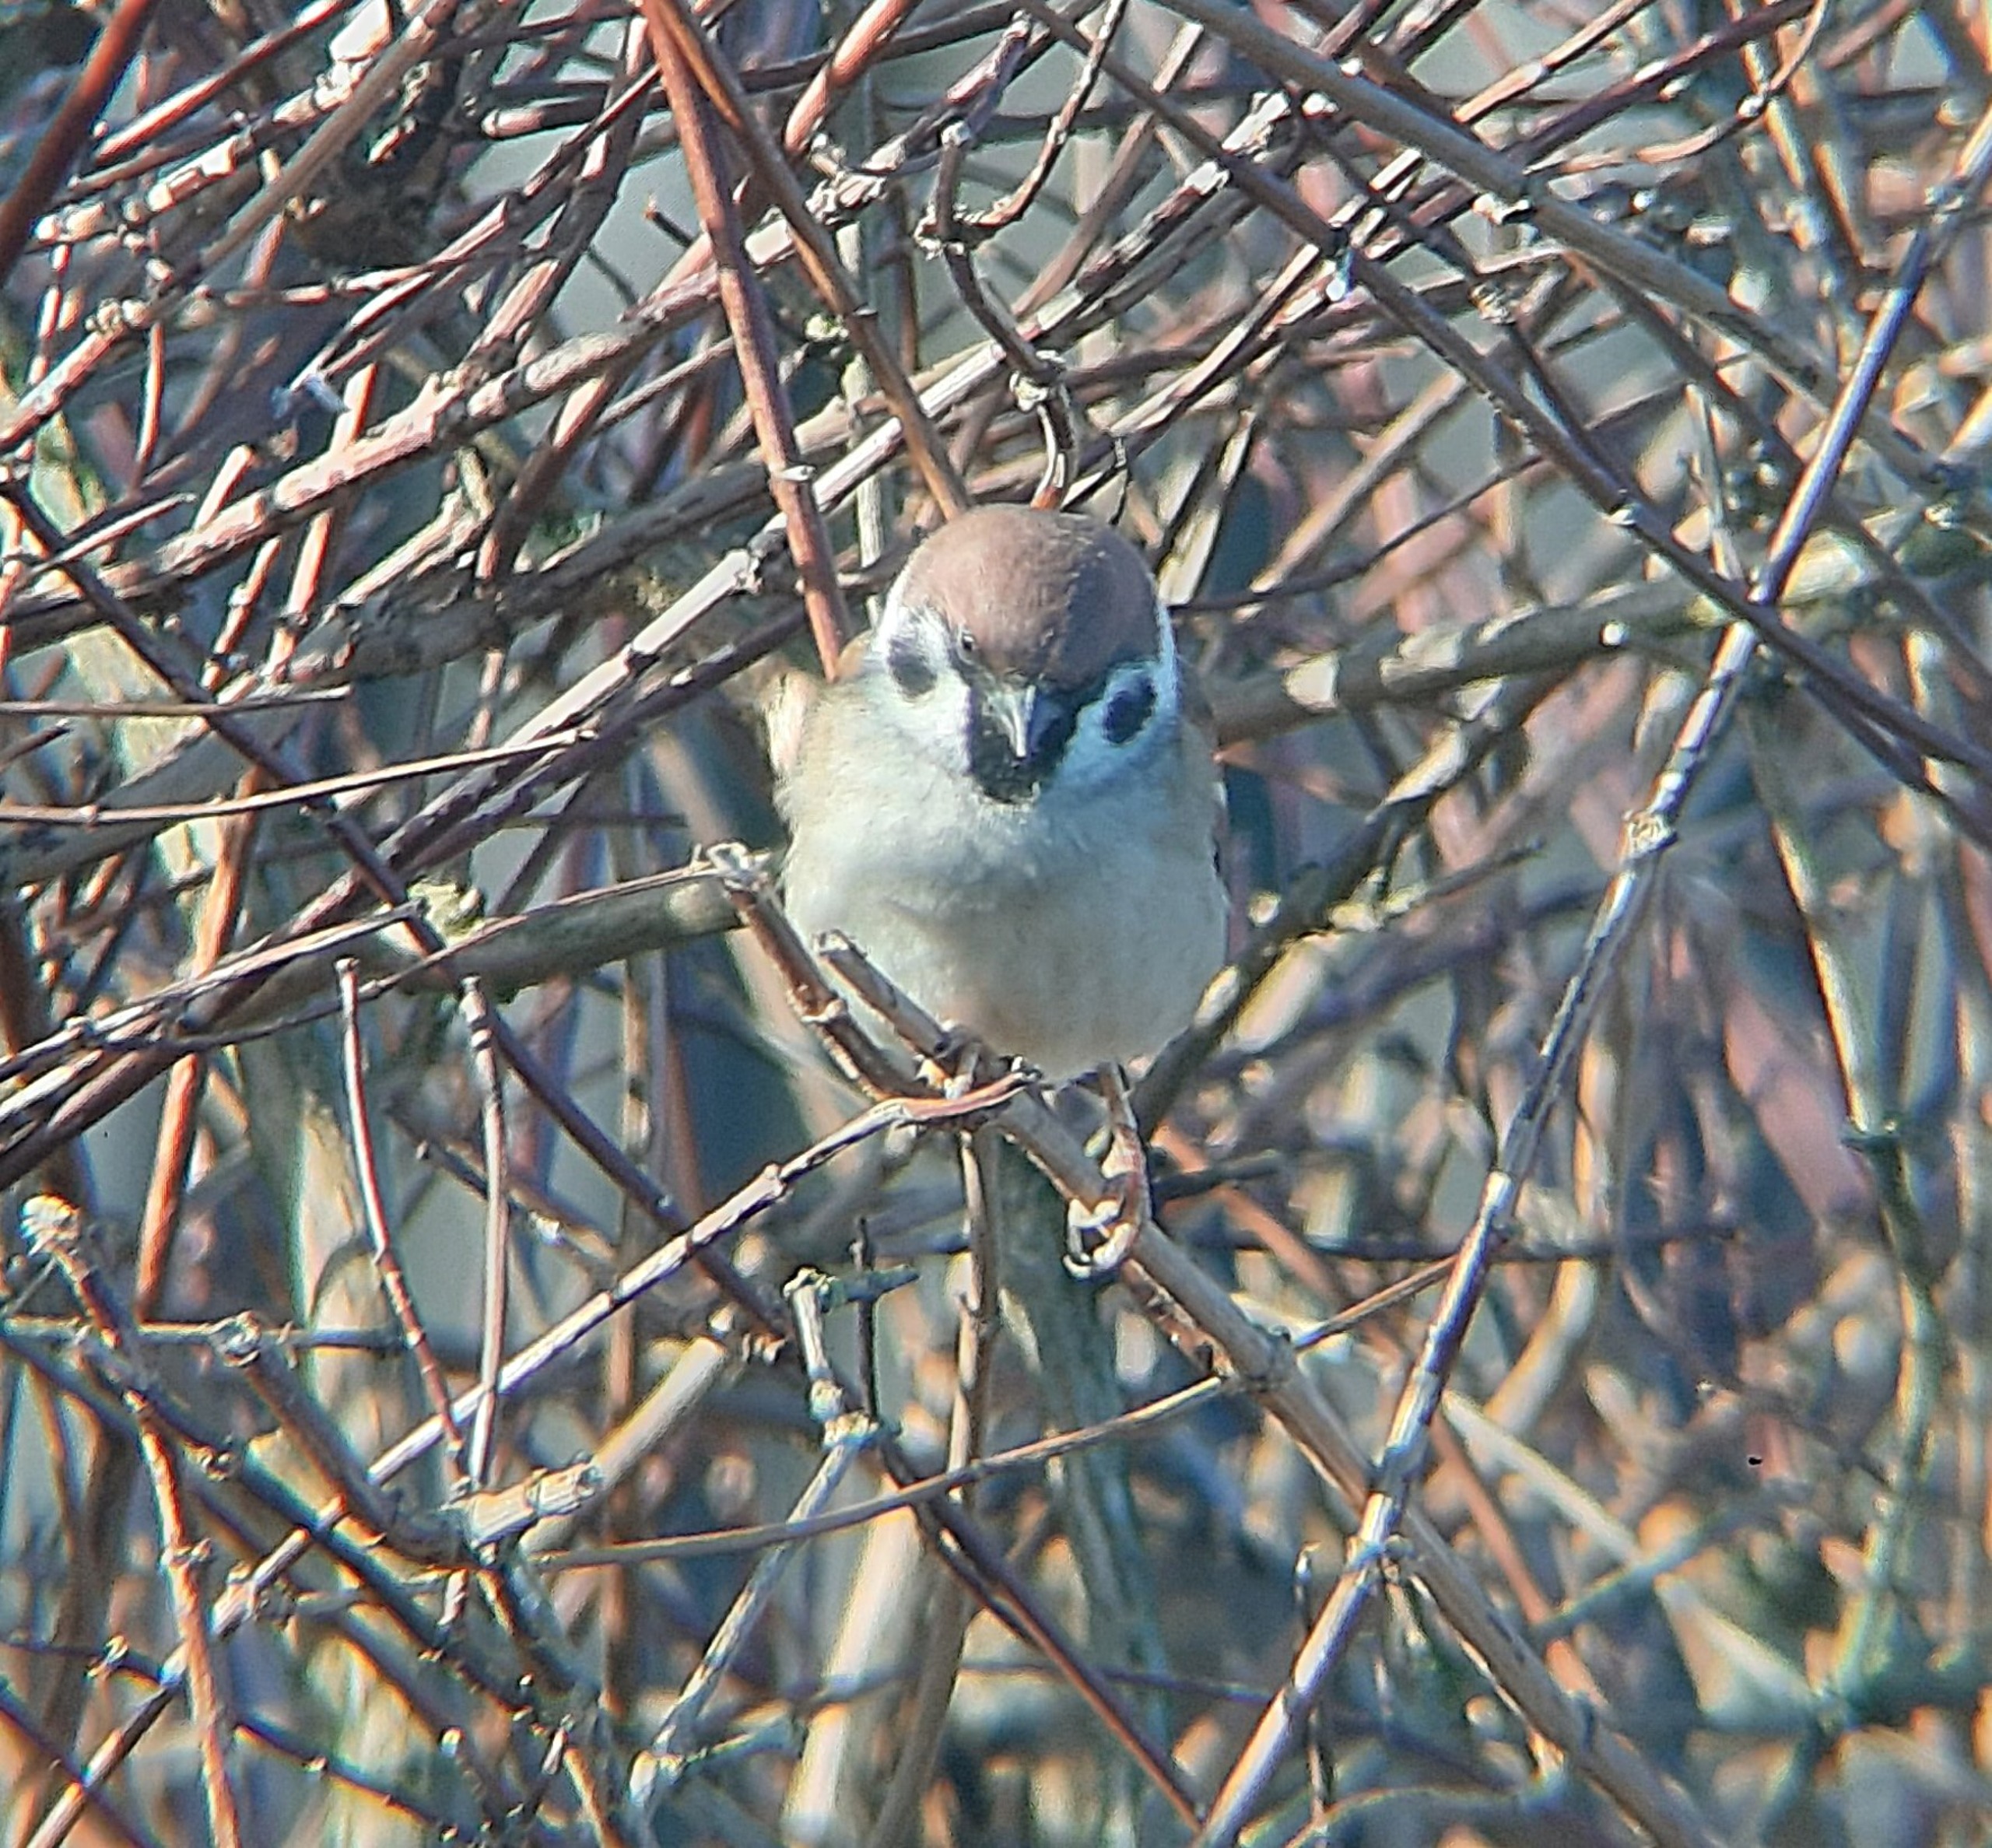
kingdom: Animalia
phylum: Chordata
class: Aves
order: Passeriformes
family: Passeridae
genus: Passer
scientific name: Passer montanus
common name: Skovspurv
